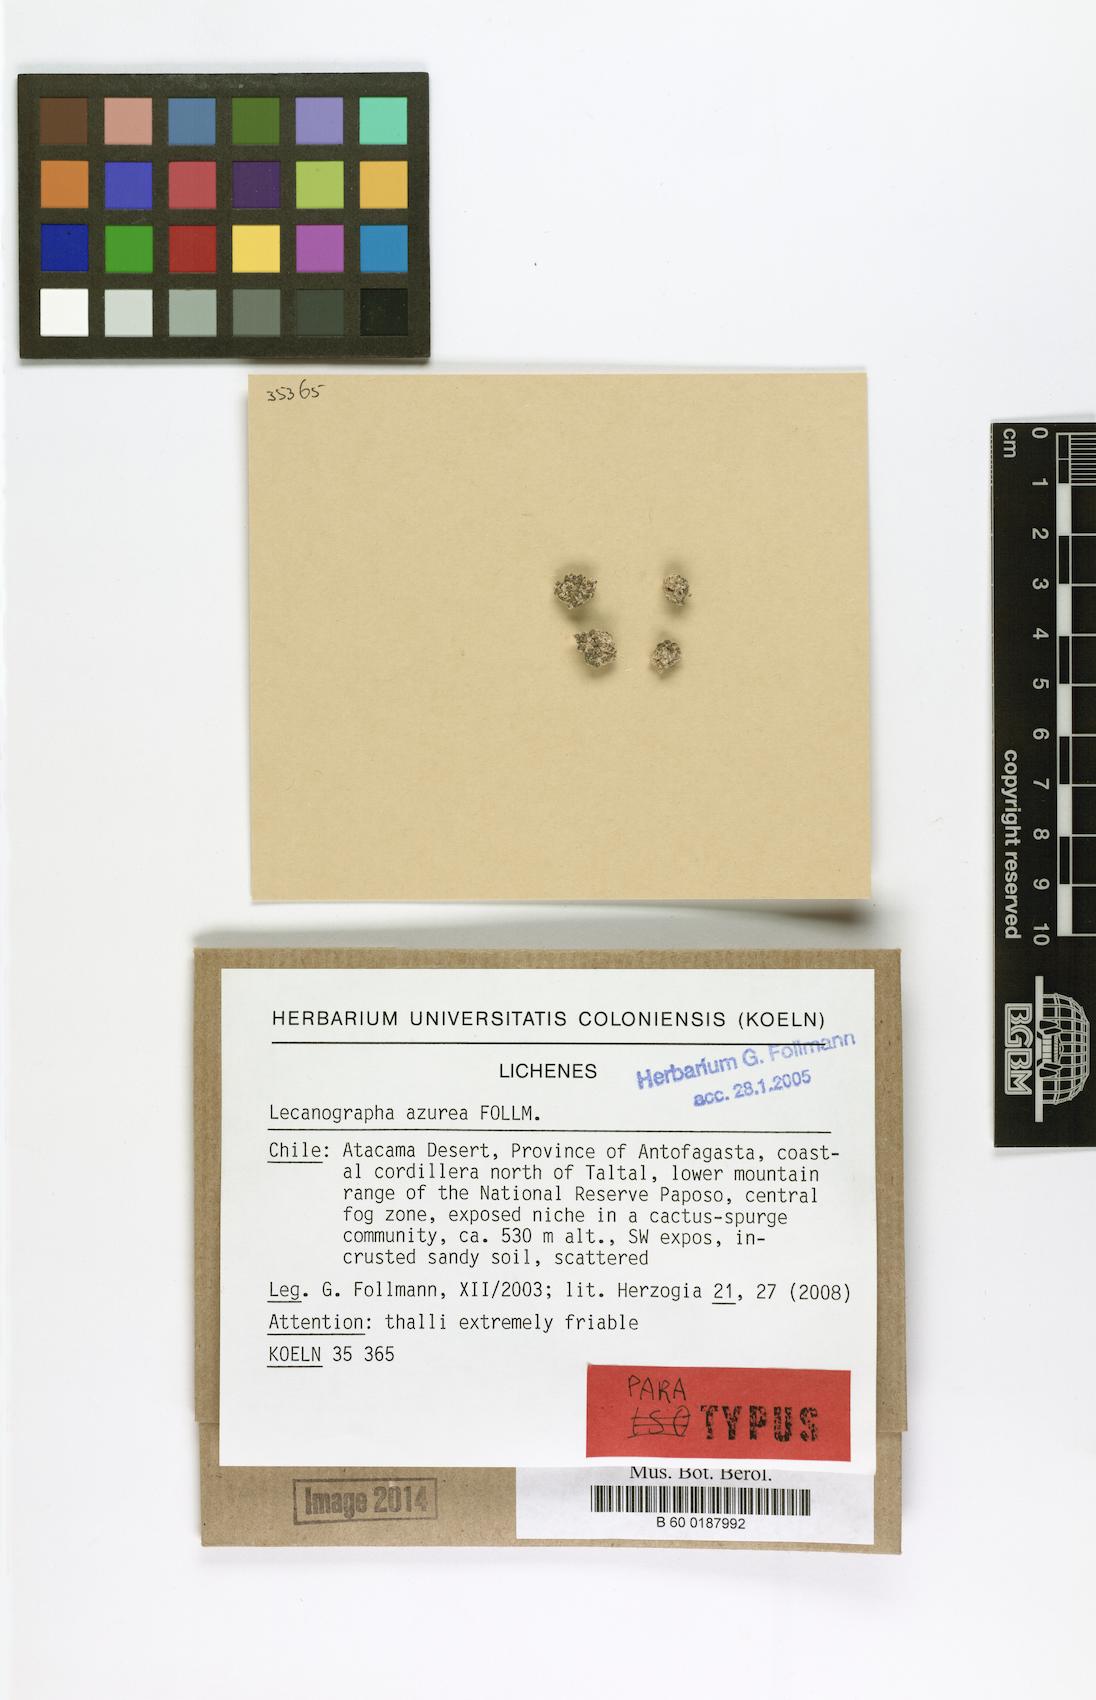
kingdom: Fungi
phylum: Ascomycota
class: Arthoniomycetes
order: Arthoniales
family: Lecanographaceae
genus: Lecanographa
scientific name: Lecanographa azurea
